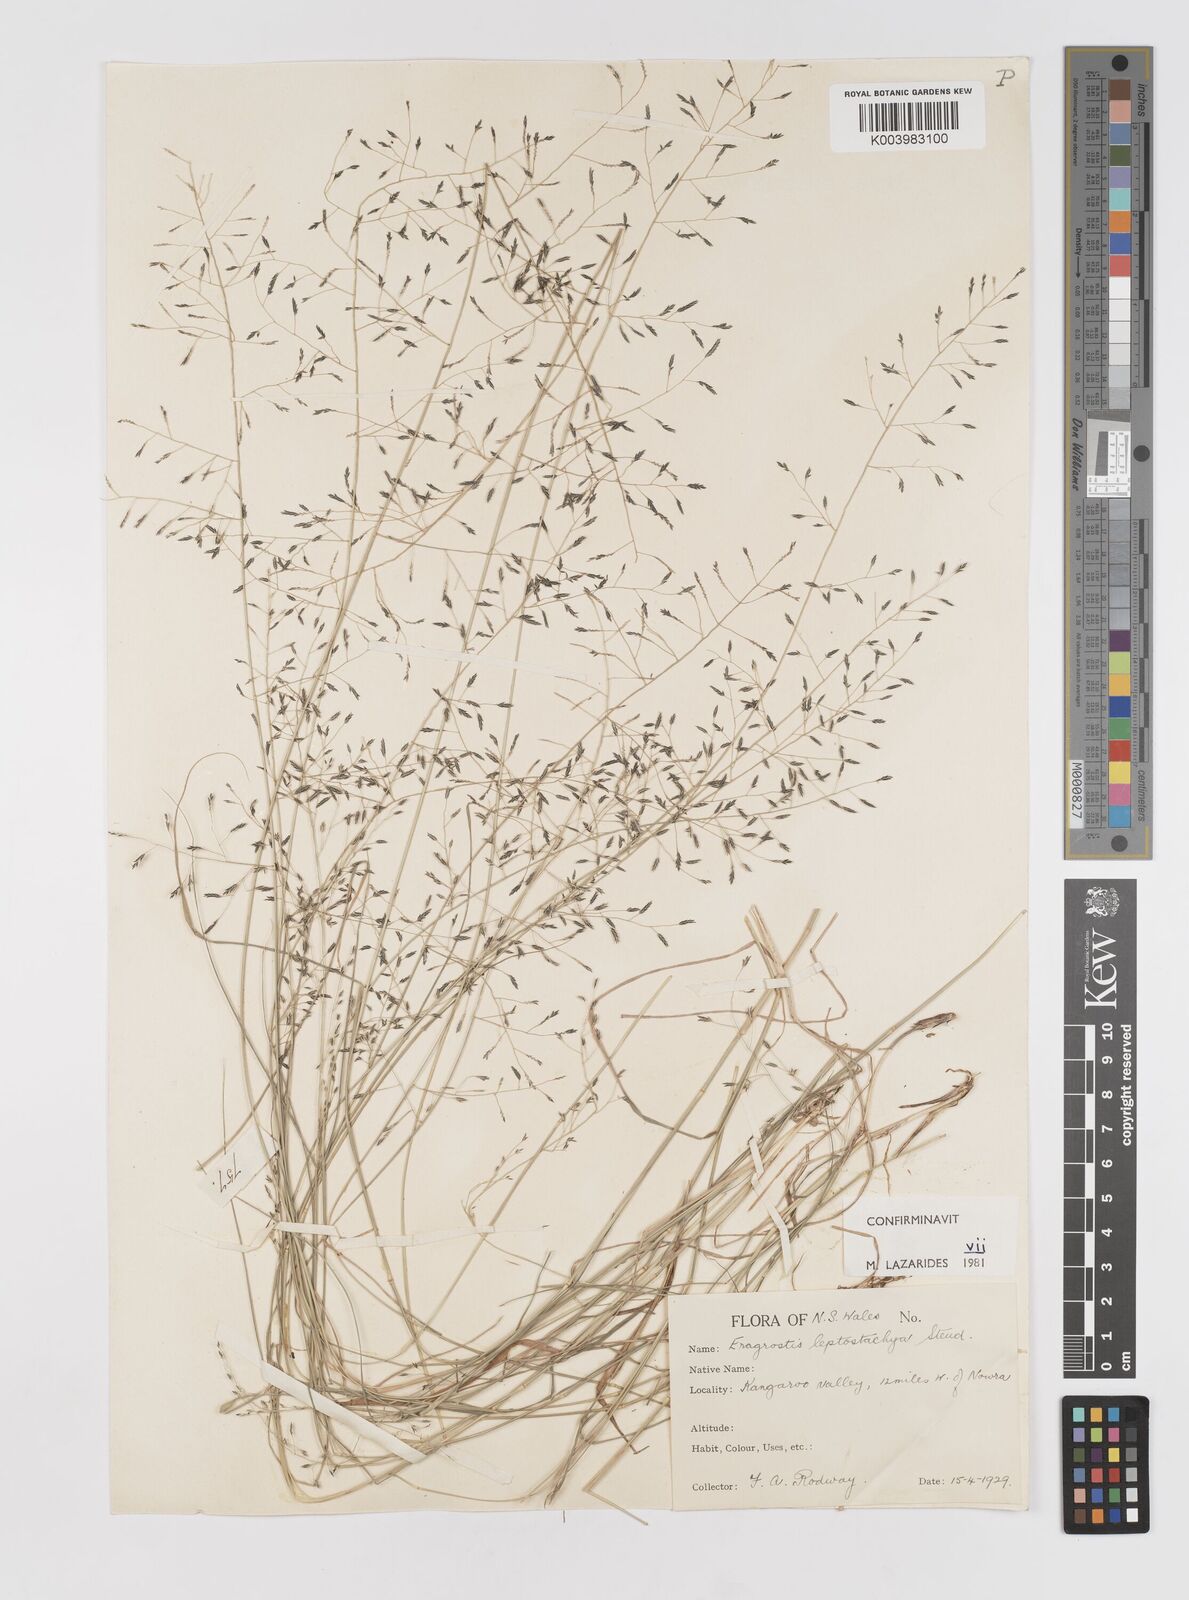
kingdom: Plantae
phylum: Tracheophyta
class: Liliopsida
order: Poales
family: Poaceae
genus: Eragrostis
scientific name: Eragrostis leptostachya
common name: Australian lovegrass
